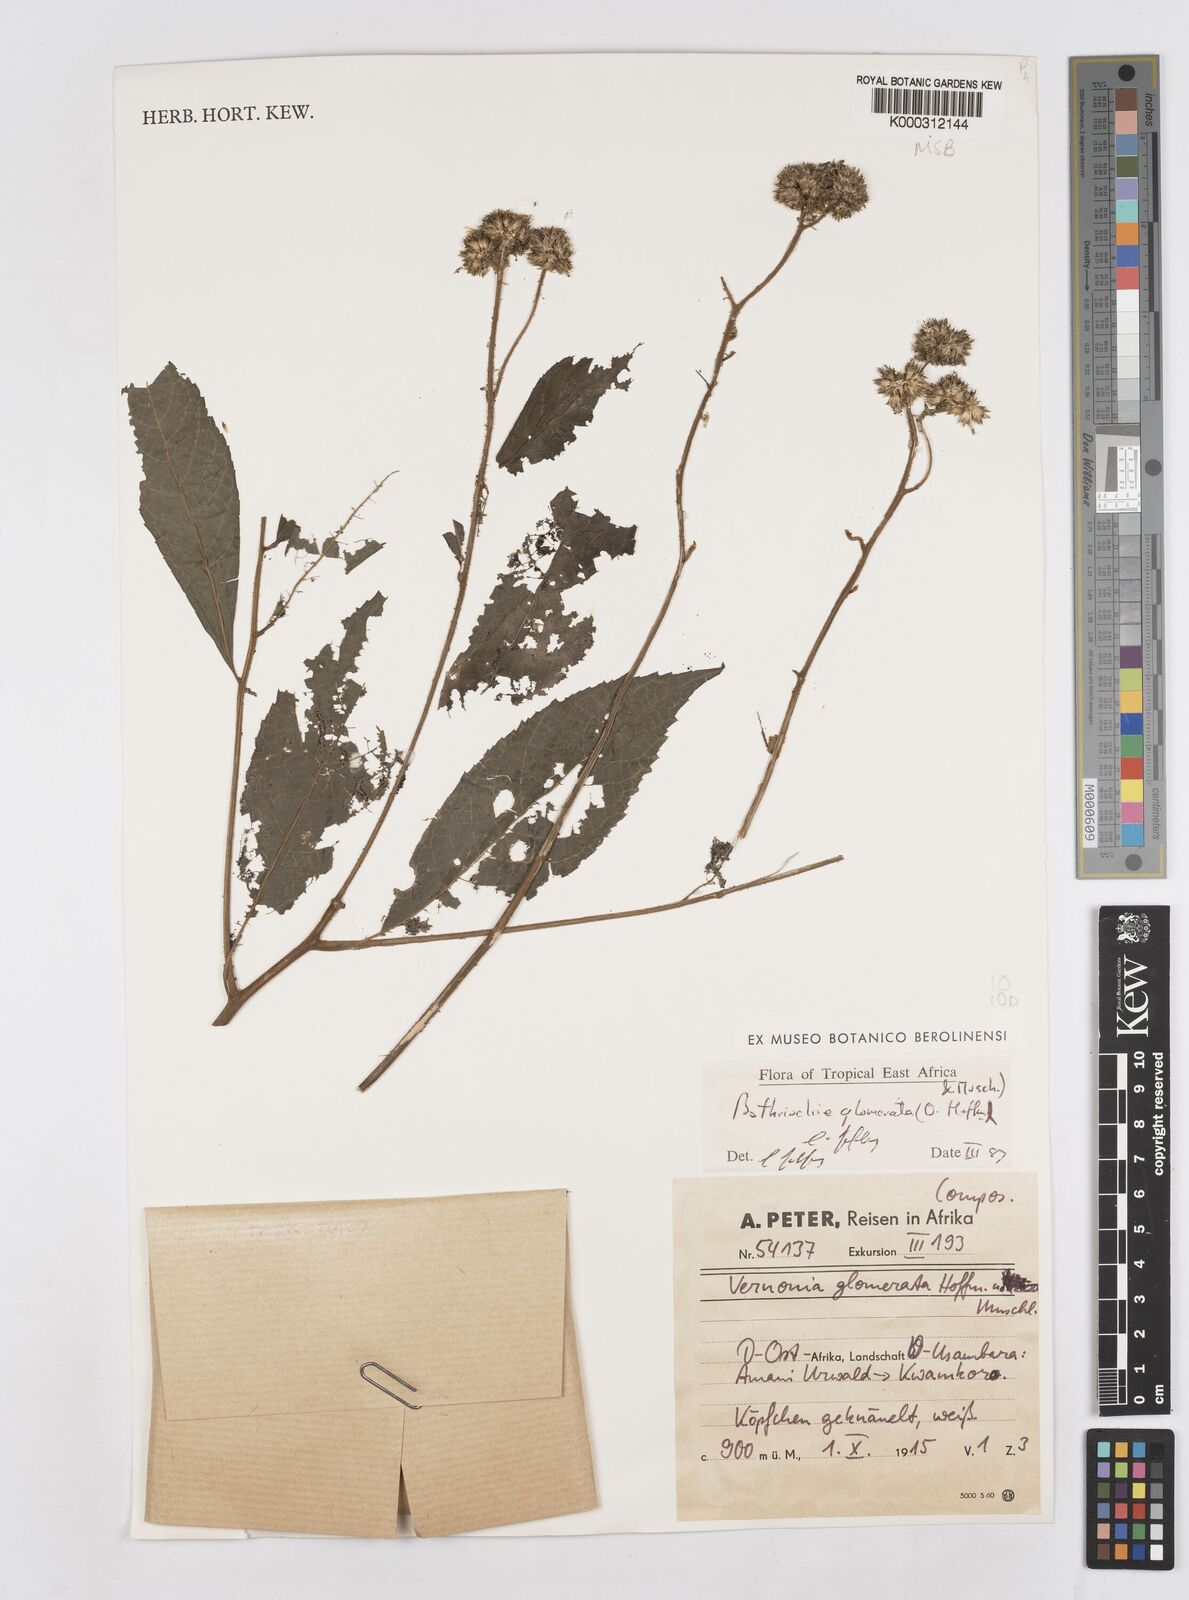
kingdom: Plantae
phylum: Tracheophyta
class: Magnoliopsida
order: Asterales
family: Asteraceae
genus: Bothriocline
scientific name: Bothriocline glomerata
